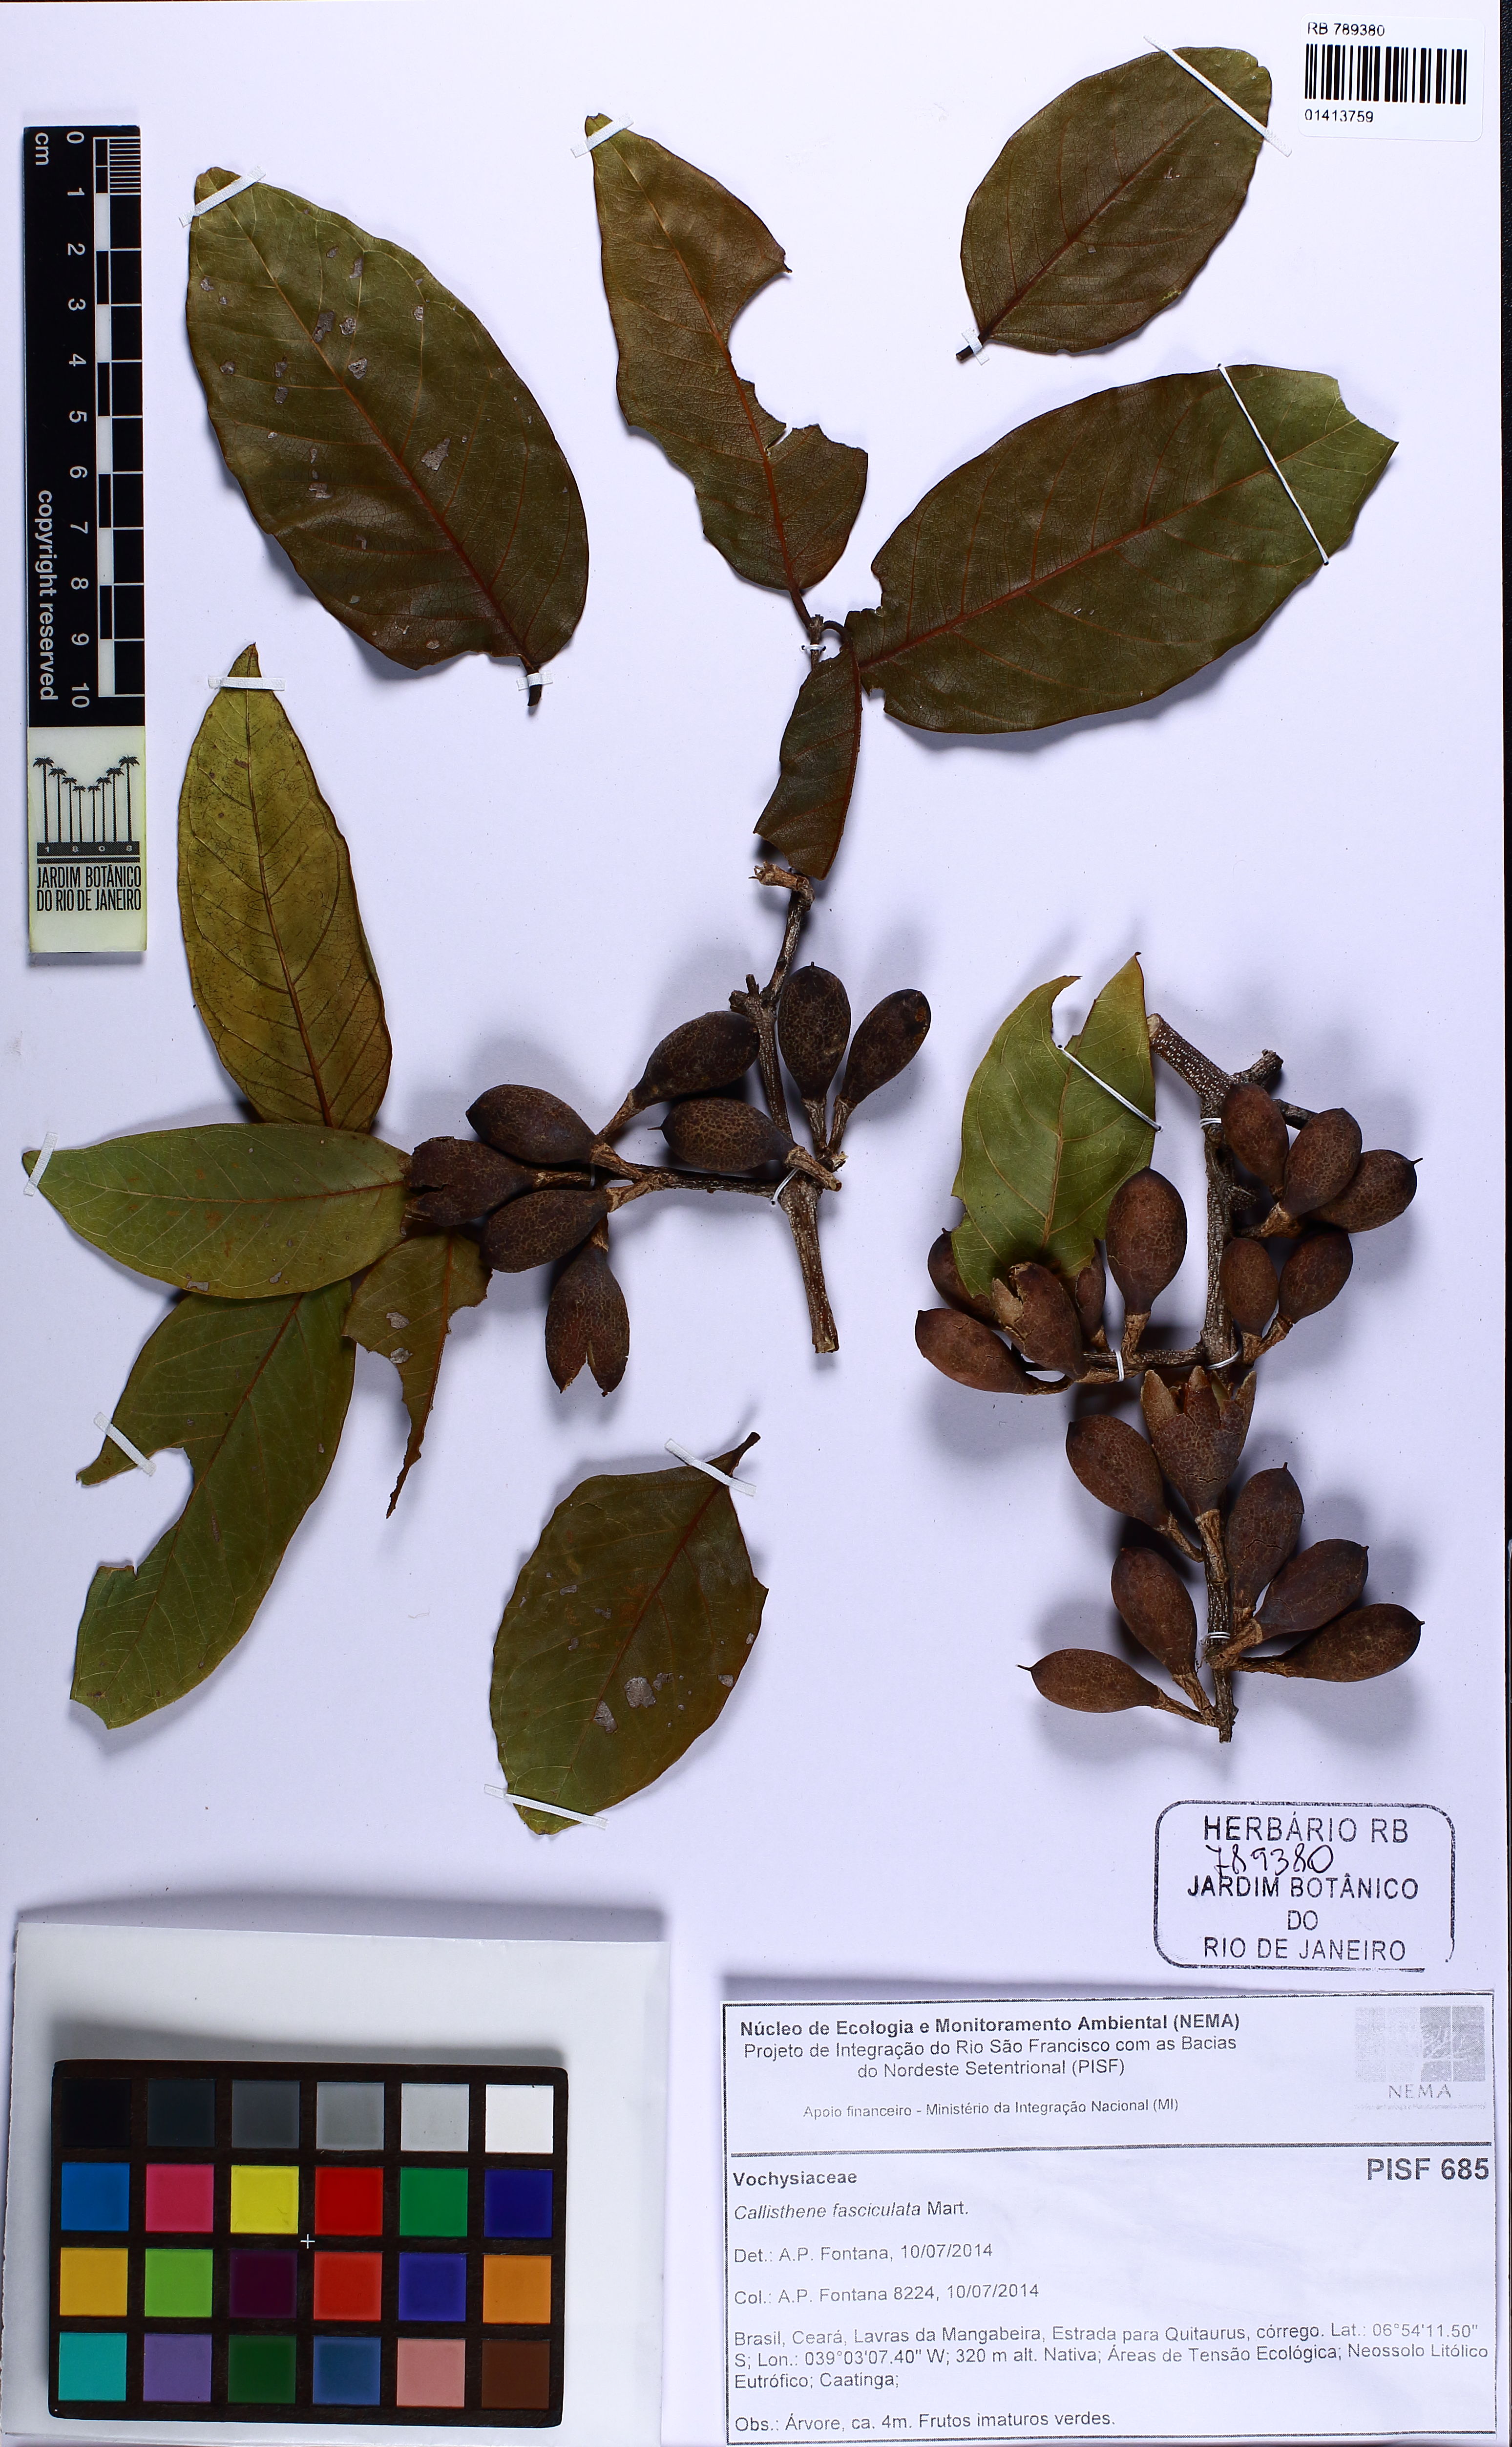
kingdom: Plantae
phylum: Tracheophyta
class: Magnoliopsida
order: Myrtales
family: Vochysiaceae
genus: Callisthene
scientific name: Callisthene fasciculata
